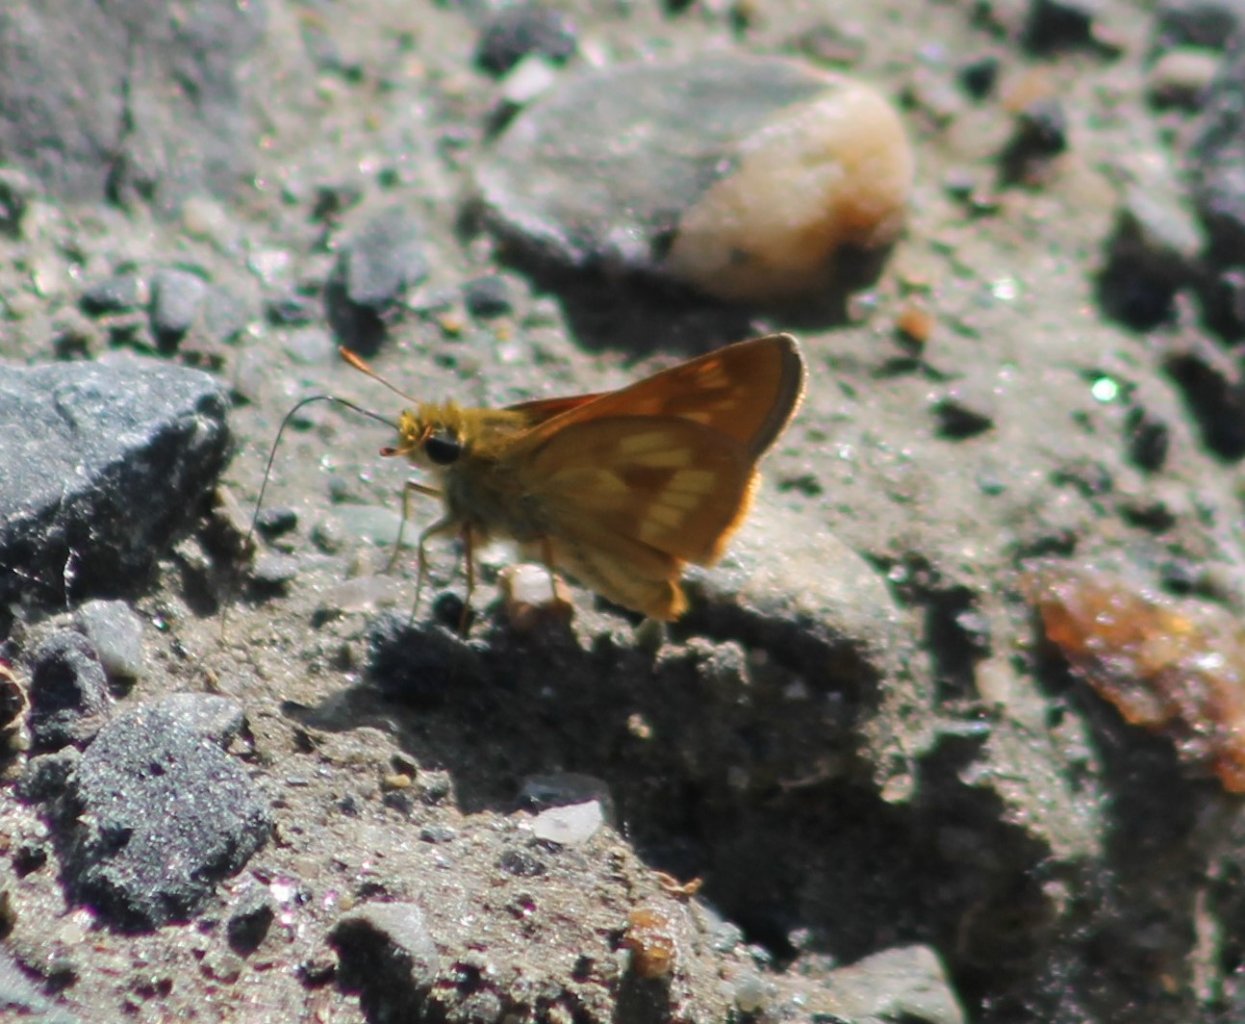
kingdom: Animalia
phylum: Arthropoda
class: Insecta
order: Lepidoptera
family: Hesperiidae
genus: Polites
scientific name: Polites
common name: Long Dash Skipper
